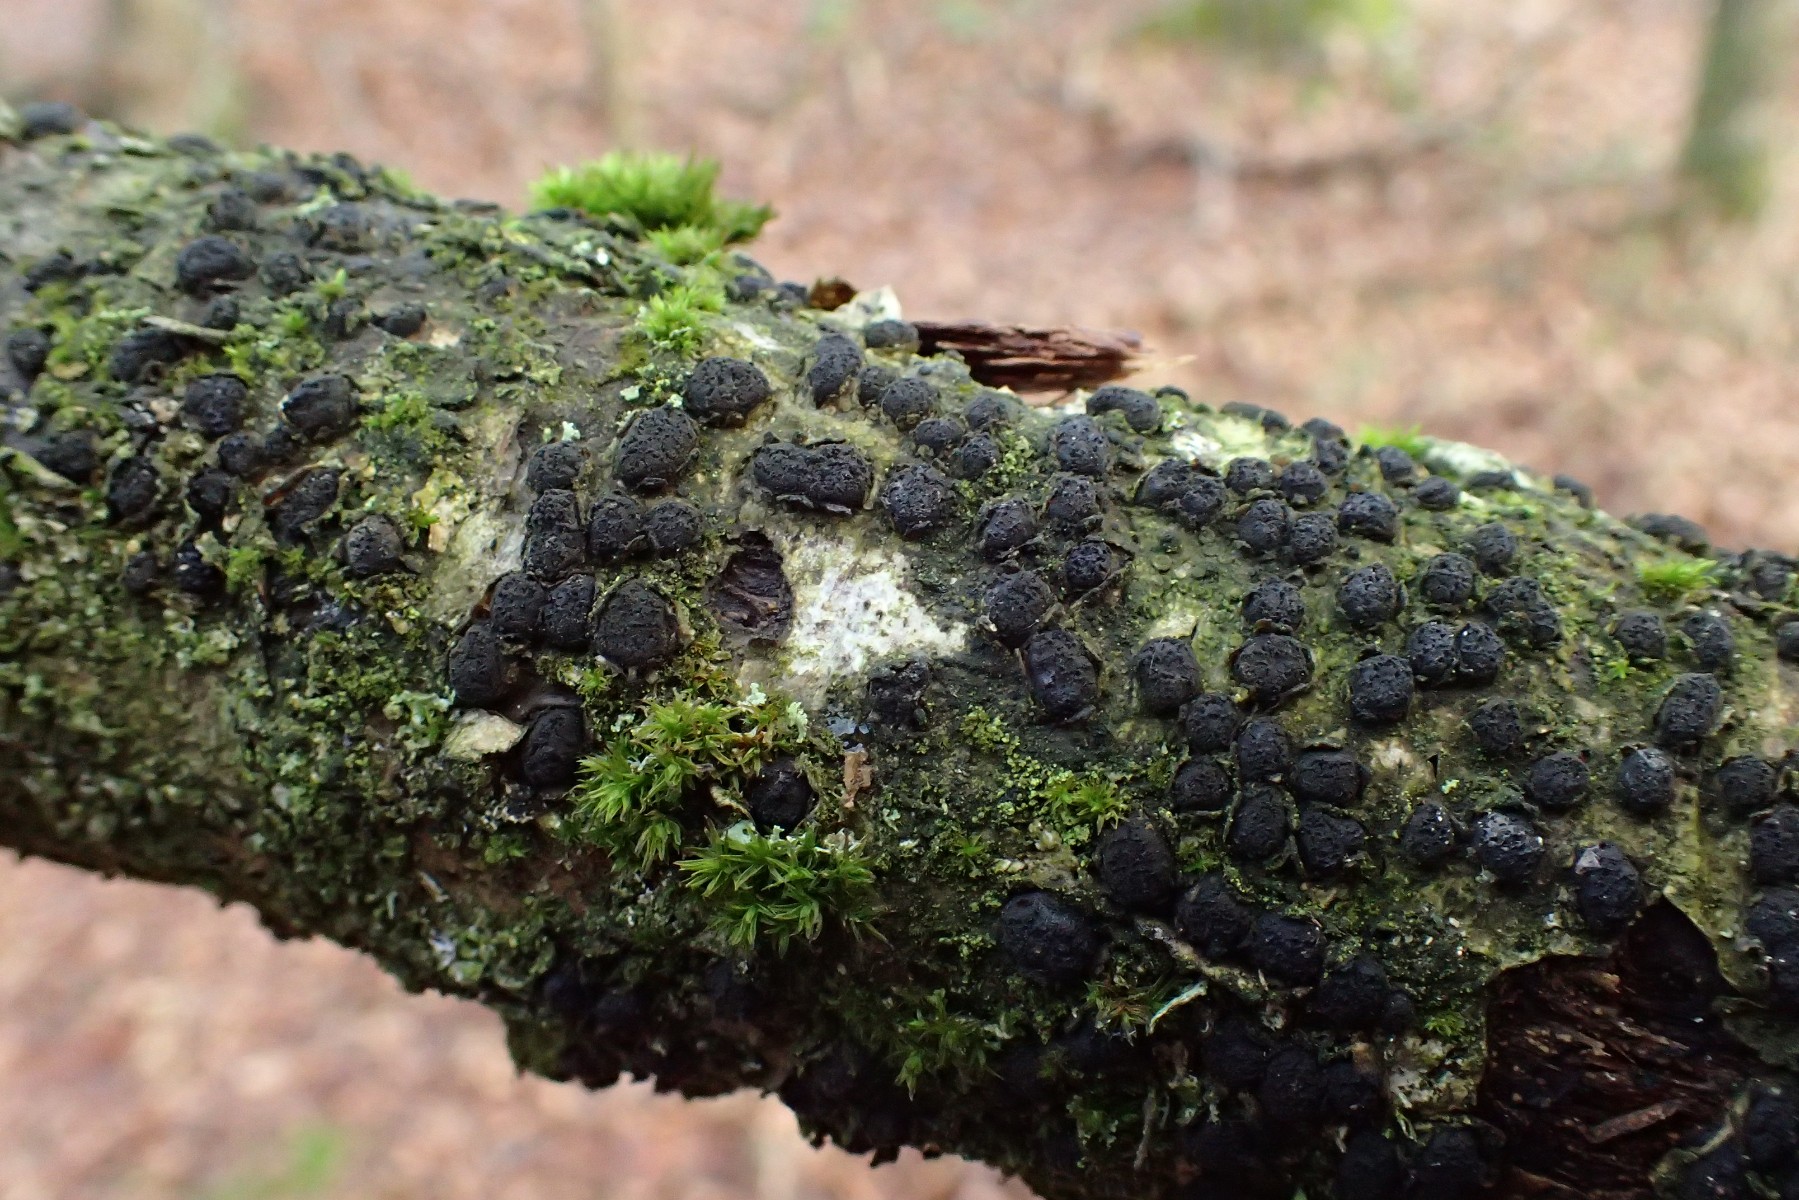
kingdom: Fungi
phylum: Ascomycota
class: Sordariomycetes
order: Xylariales
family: Diatrypaceae
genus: Diatrypella
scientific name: Diatrypella quercina
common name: ege-kulskorpe
